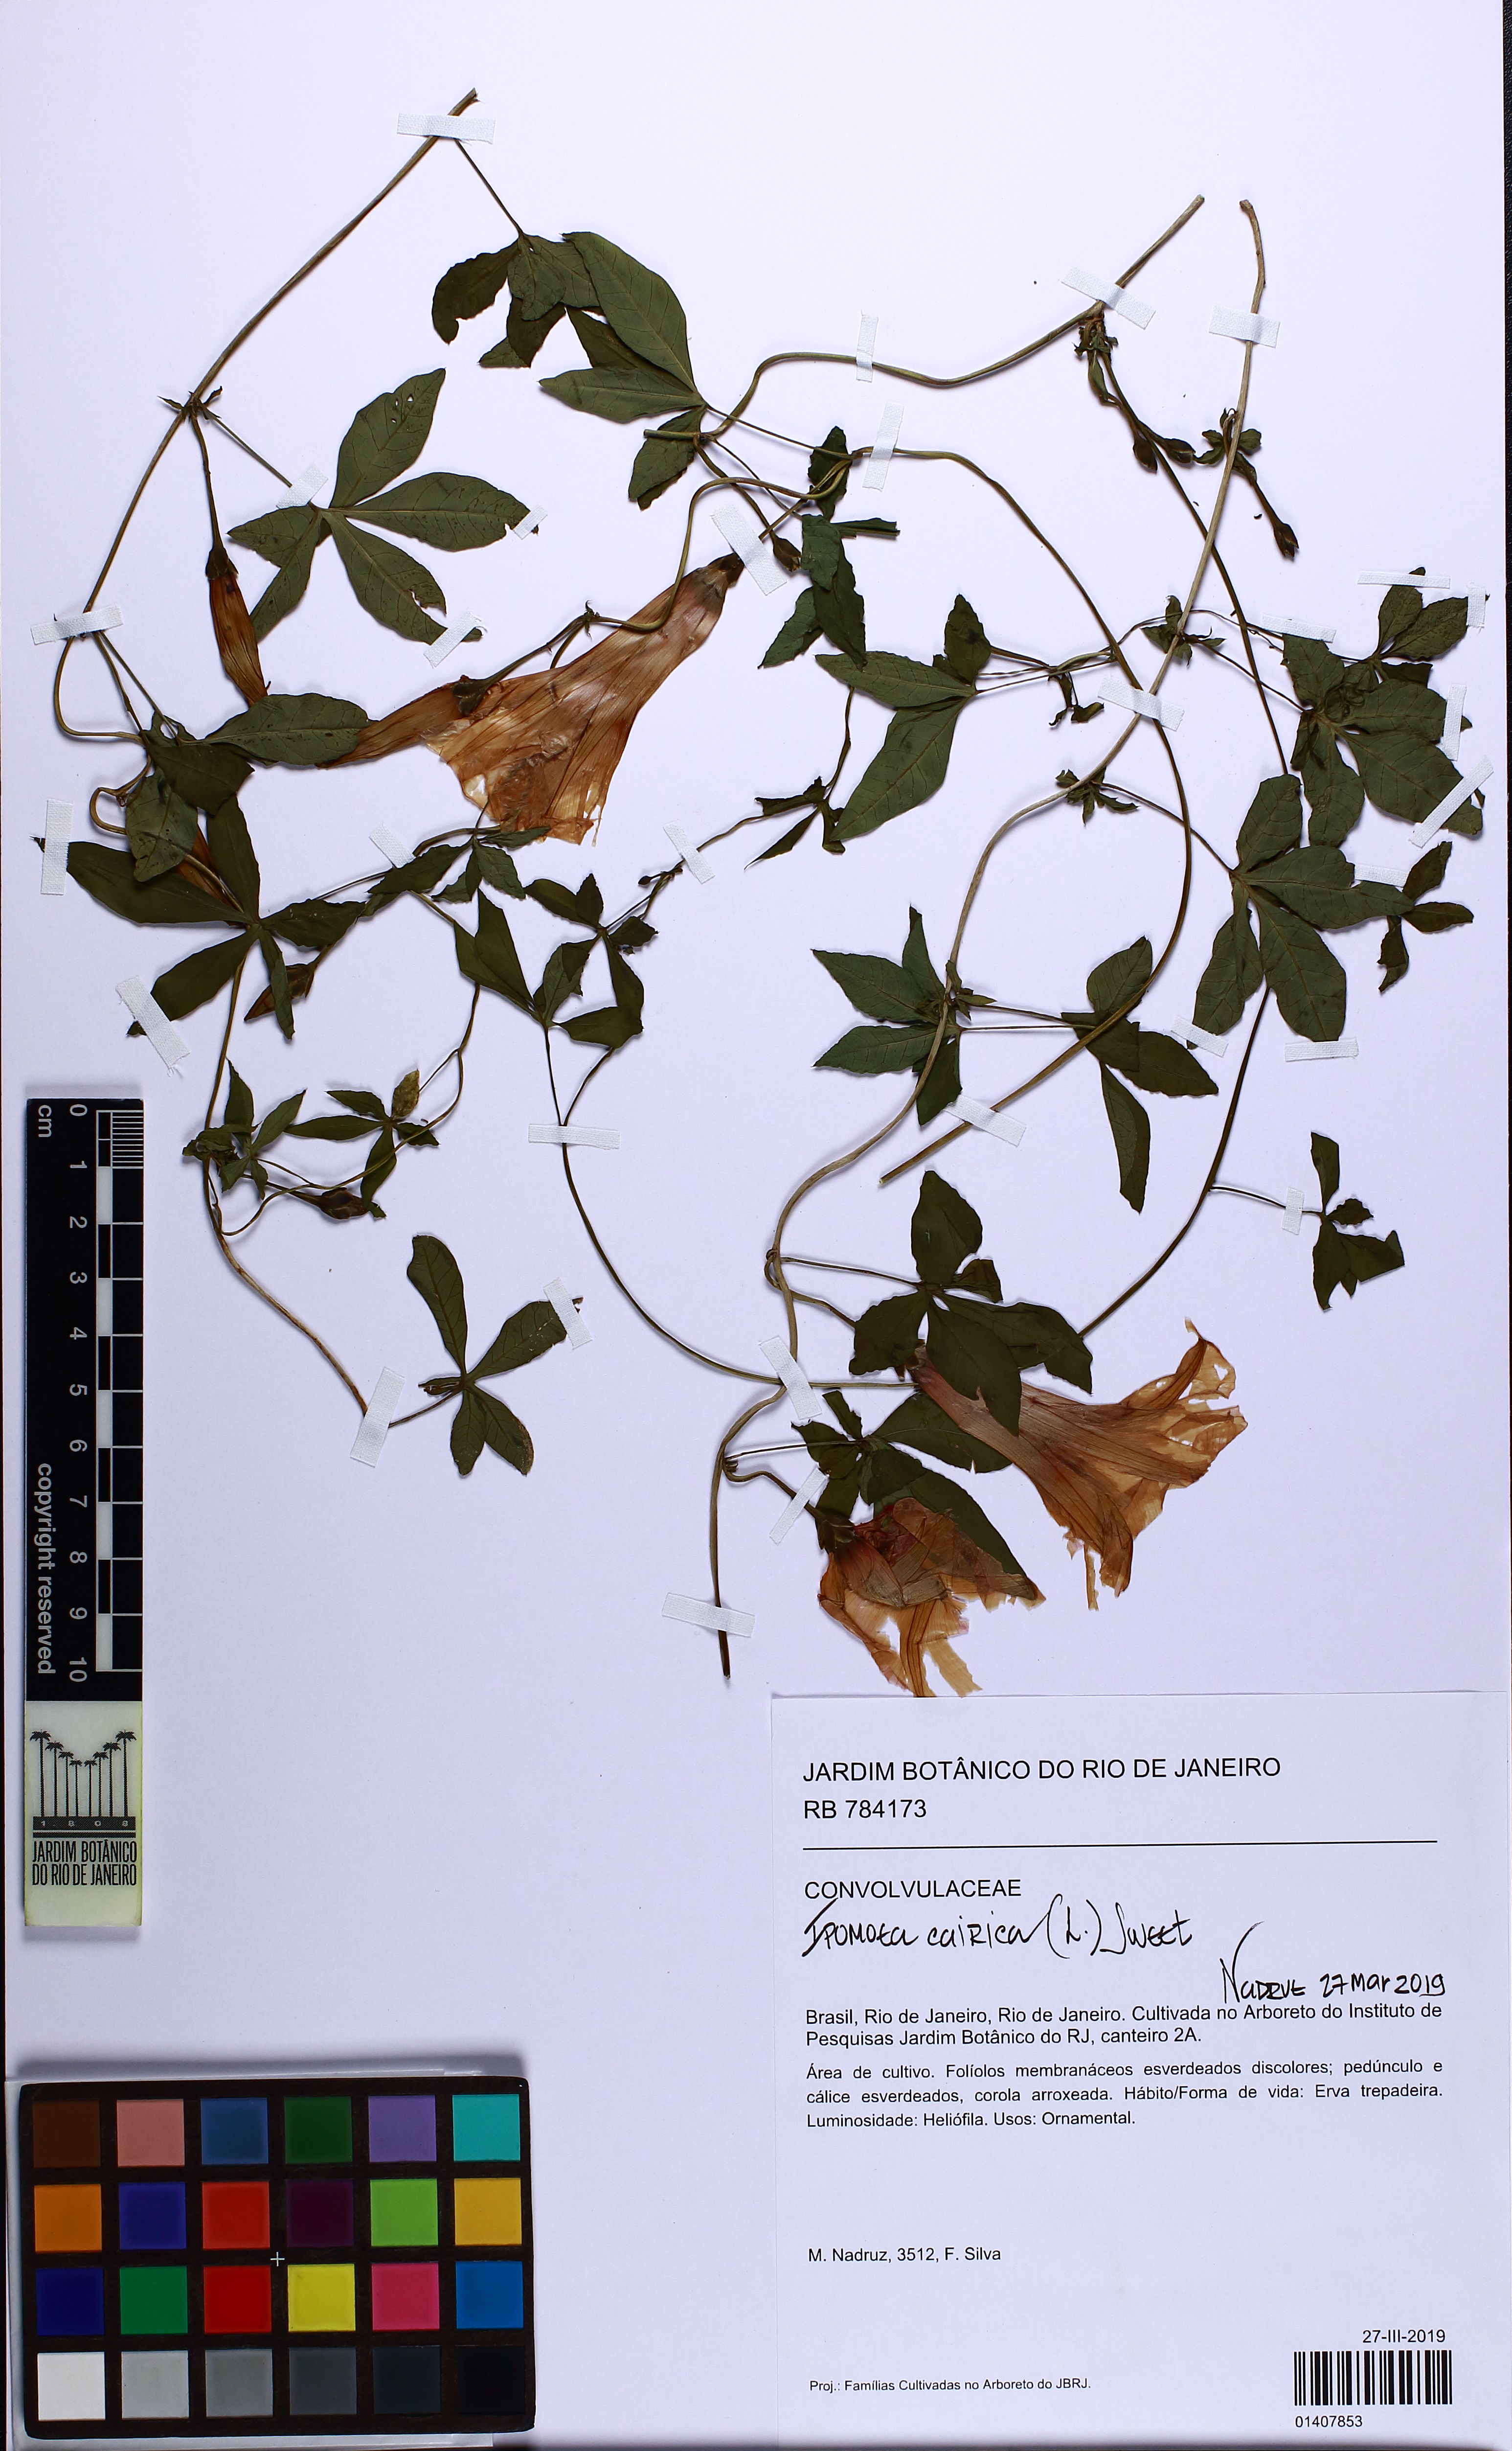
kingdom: Plantae
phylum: Tracheophyta
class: Magnoliopsida
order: Solanales
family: Convolvulaceae
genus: Ipomoea
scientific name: Ipomoea cairica
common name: Mile a minute vine
